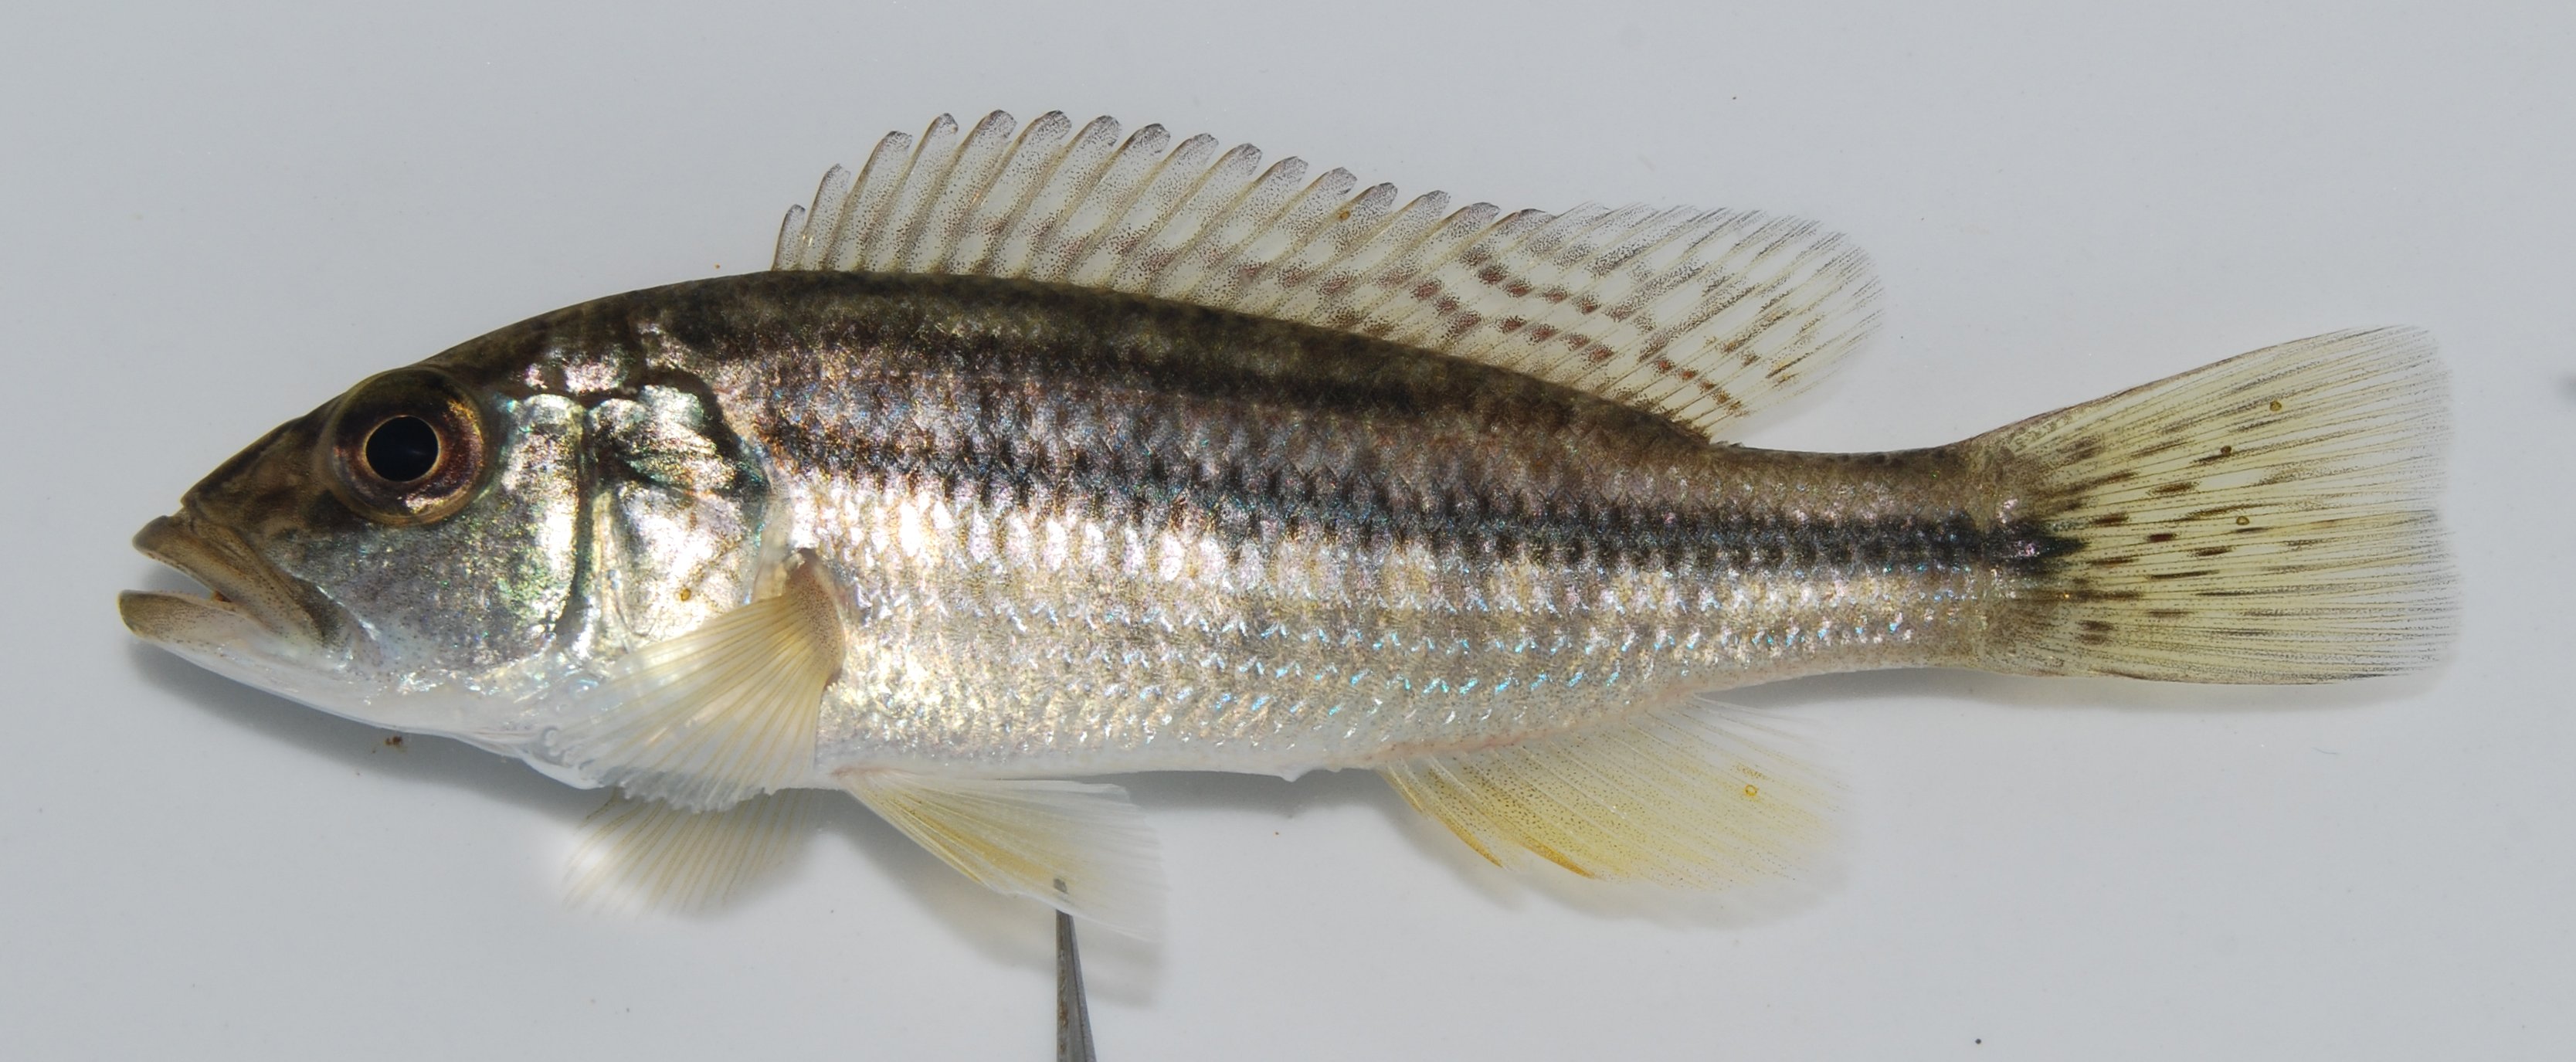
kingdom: Animalia
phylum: Chordata
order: Perciformes
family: Cichlidae
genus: Serranochromis
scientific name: Serranochromis thumbergi
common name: Brownspot largemouth
